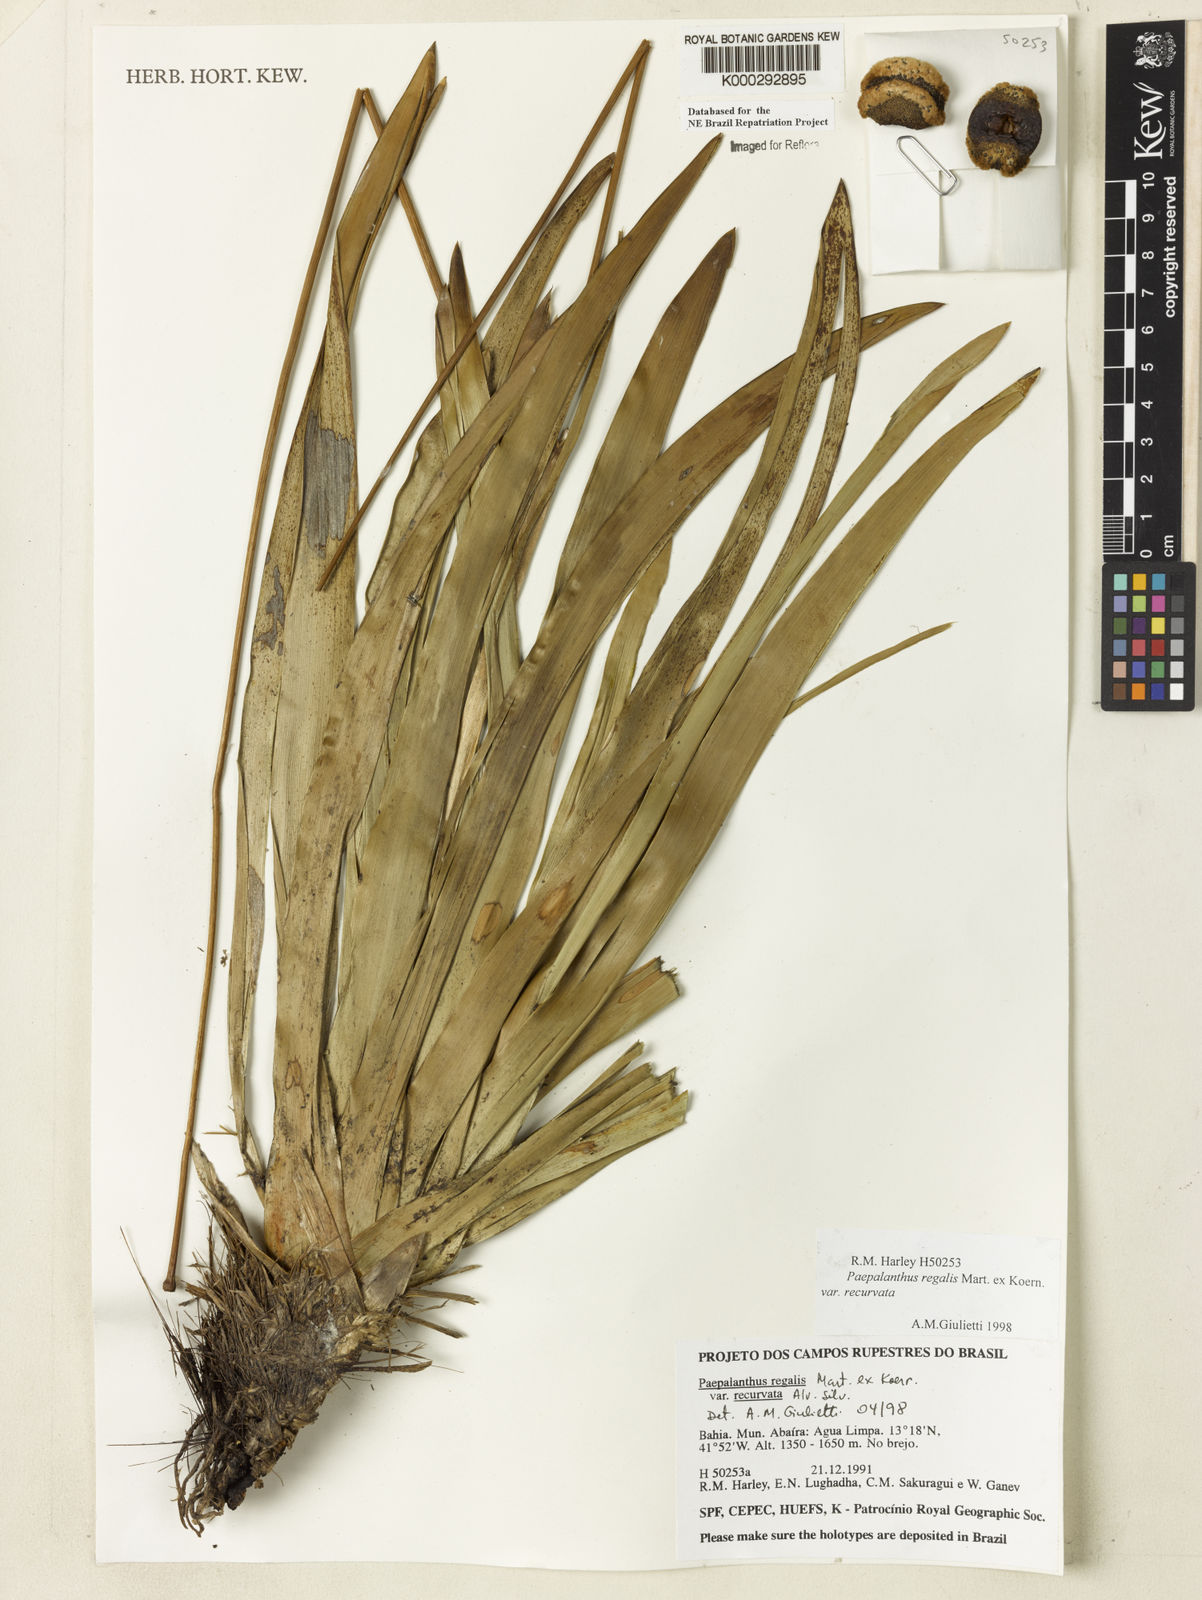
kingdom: Plantae
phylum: Tracheophyta
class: Liliopsida
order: Poales
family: Eriocaulaceae
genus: Paepalanthus
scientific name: Paepalanthus
